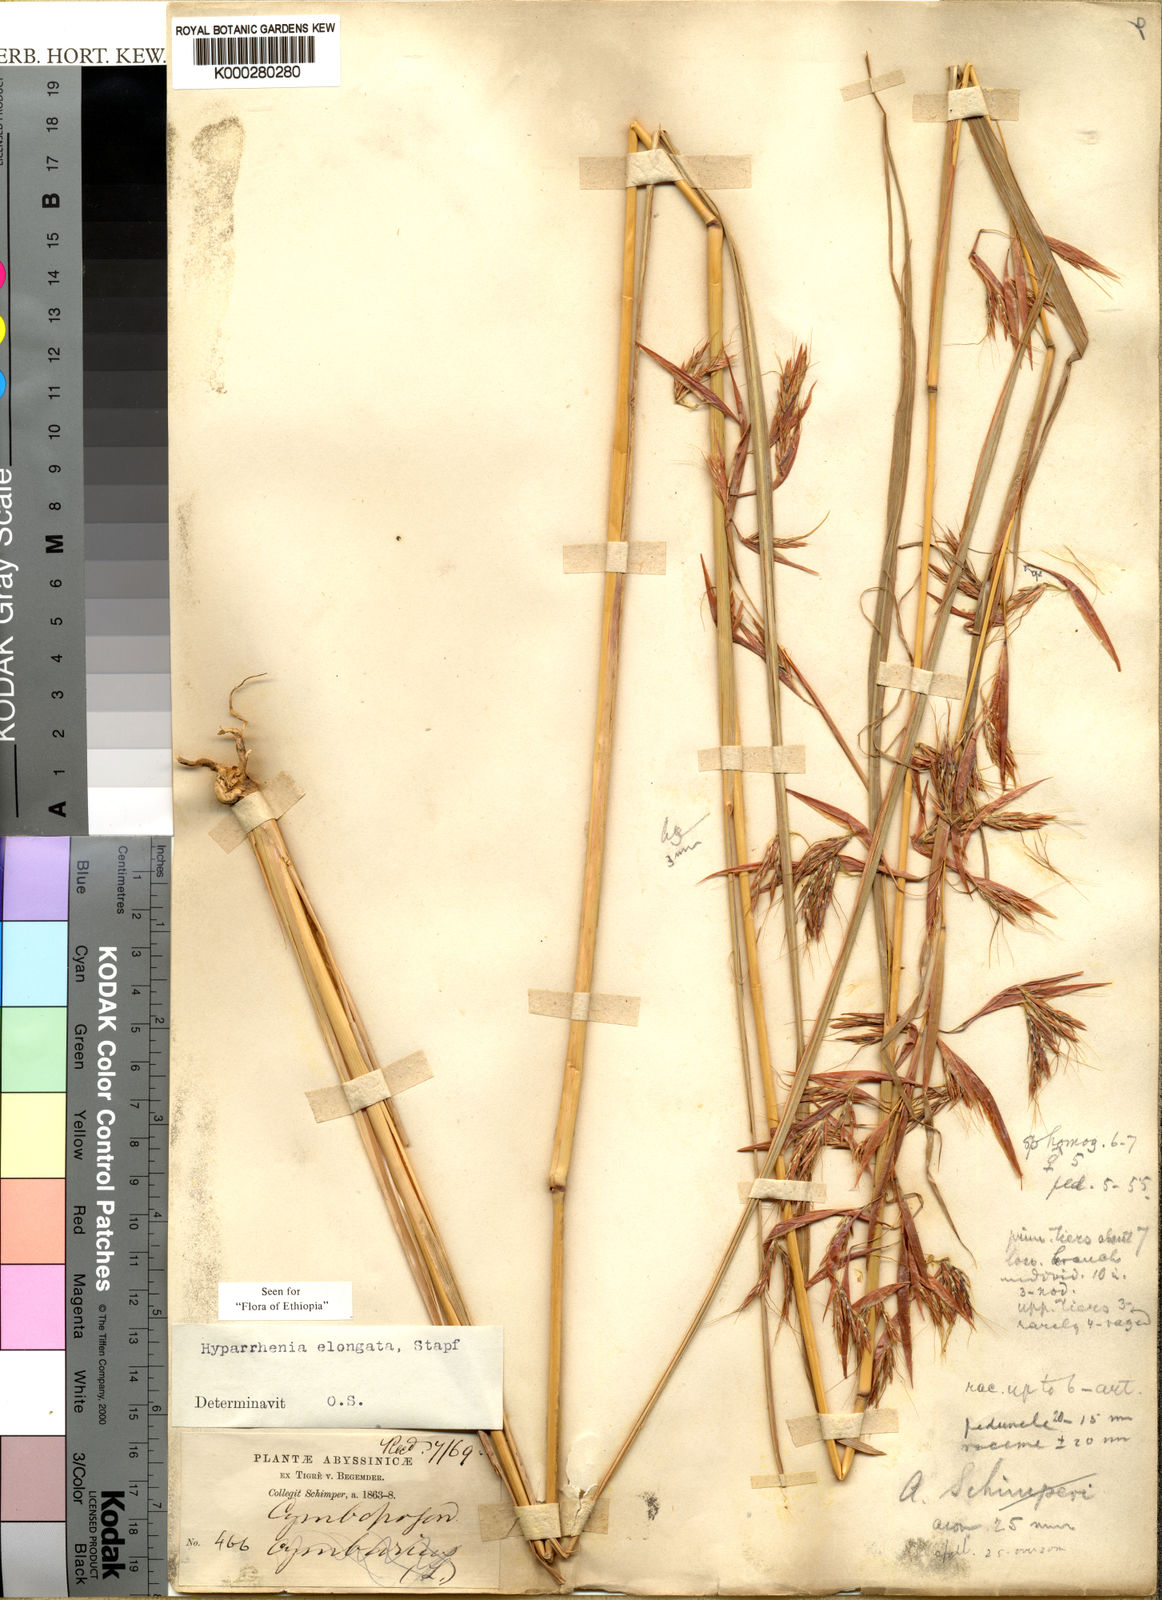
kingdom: Plantae
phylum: Tracheophyta
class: Liliopsida
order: Poales
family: Poaceae
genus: Hyparrhenia
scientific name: Hyparrhenia dregeana
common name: Silky thatching grass
